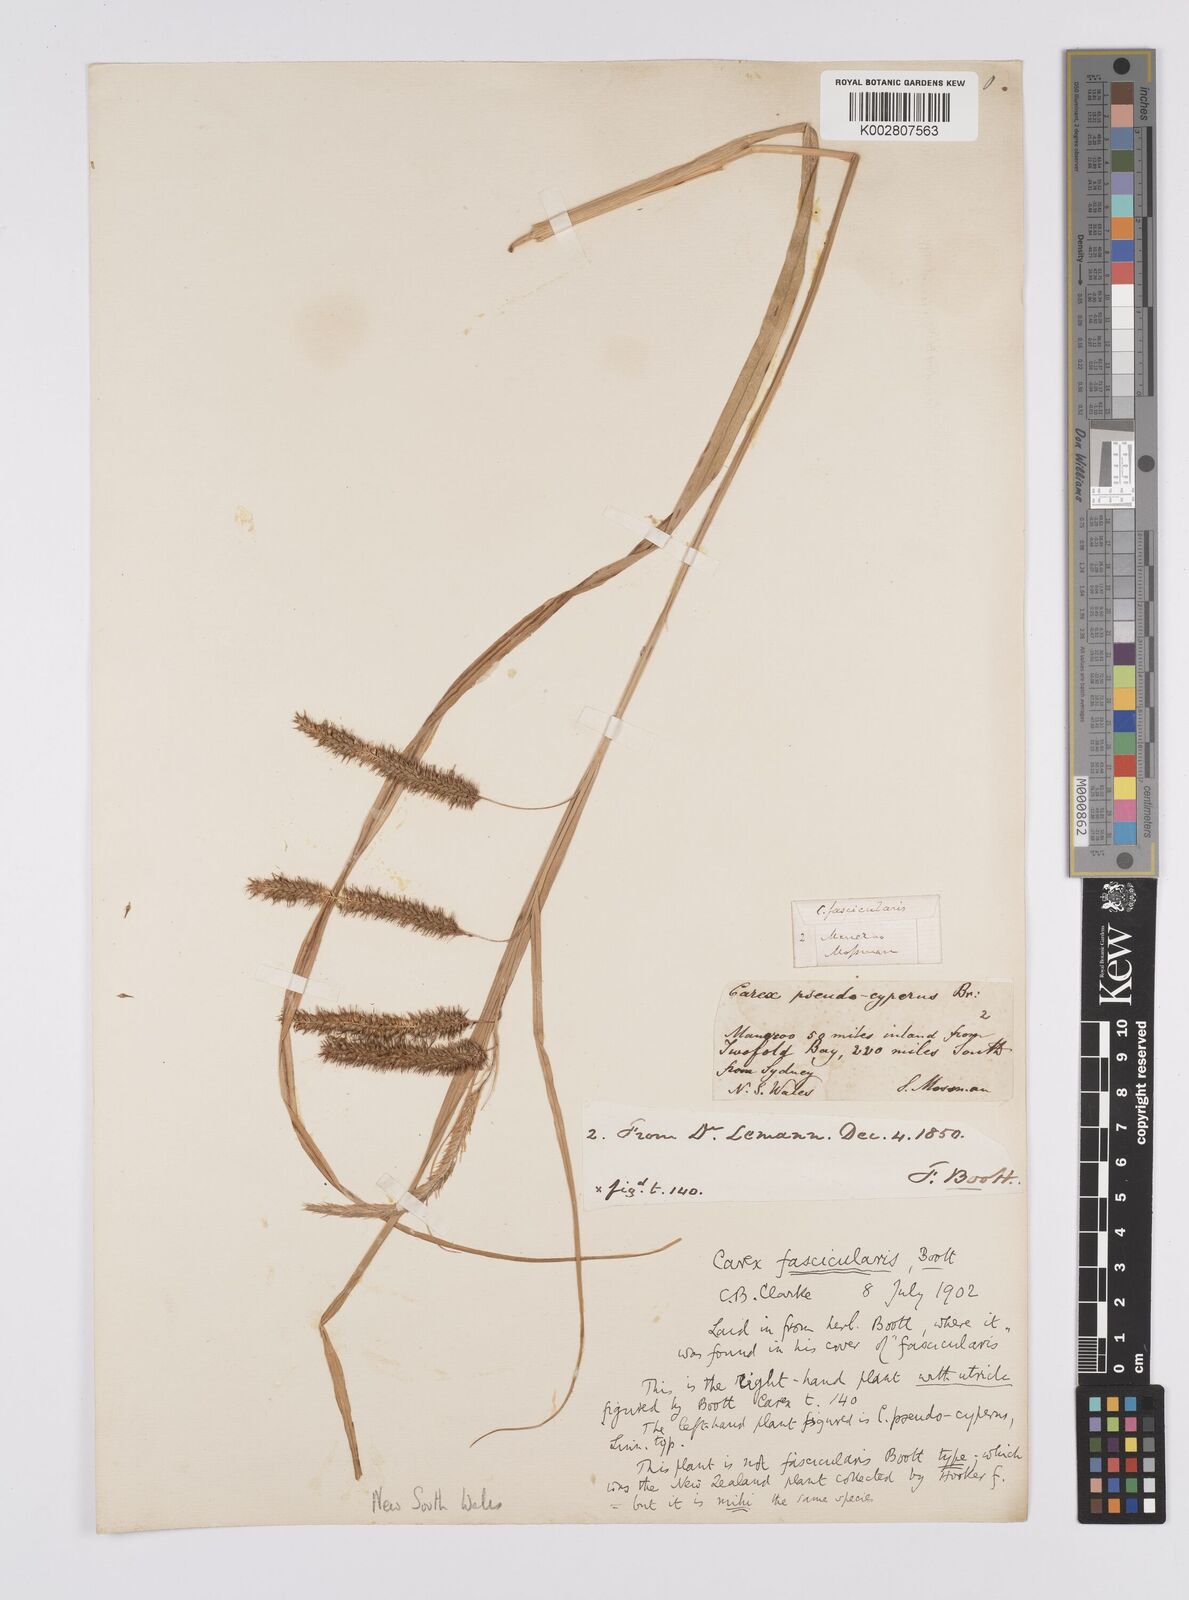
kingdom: Plantae
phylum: Tracheophyta
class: Liliopsida
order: Poales
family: Cyperaceae
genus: Carex
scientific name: Carex fascicularis
